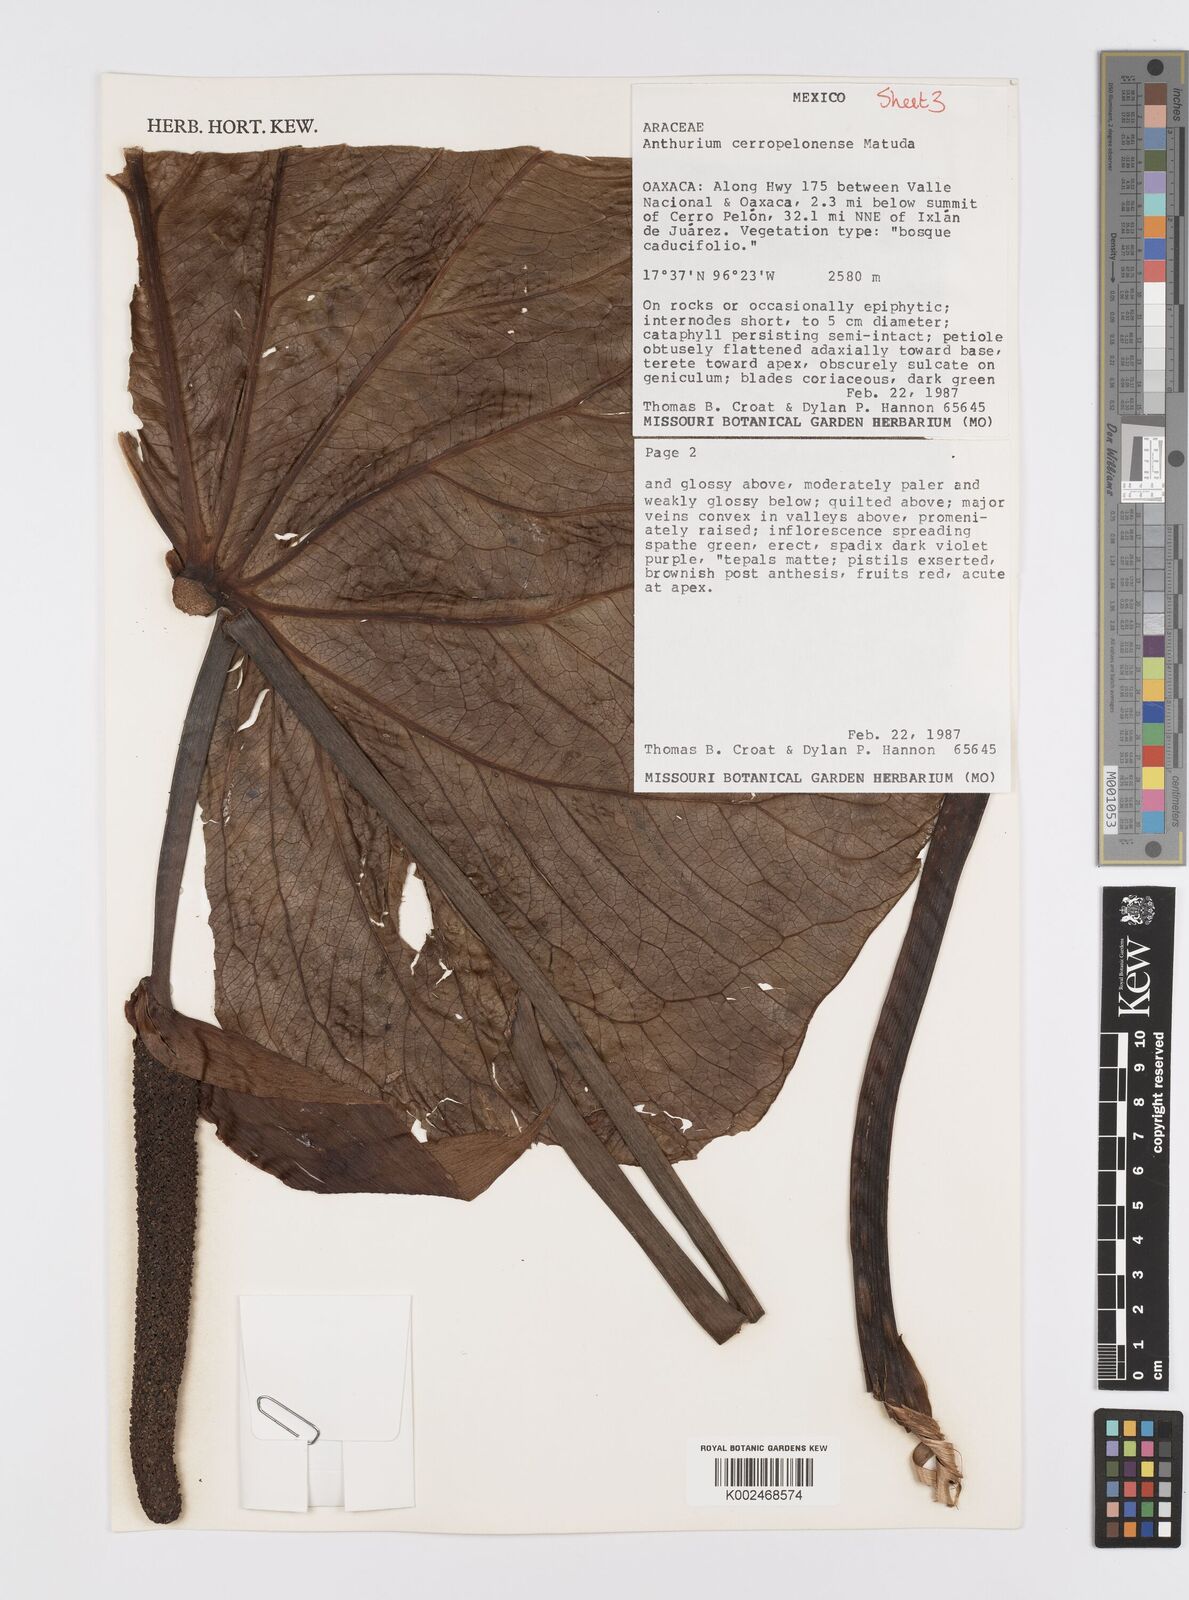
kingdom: Plantae
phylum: Tracheophyta
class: Liliopsida
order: Alismatales
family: Araceae
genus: Anthurium
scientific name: Anthurium cerropelonense
